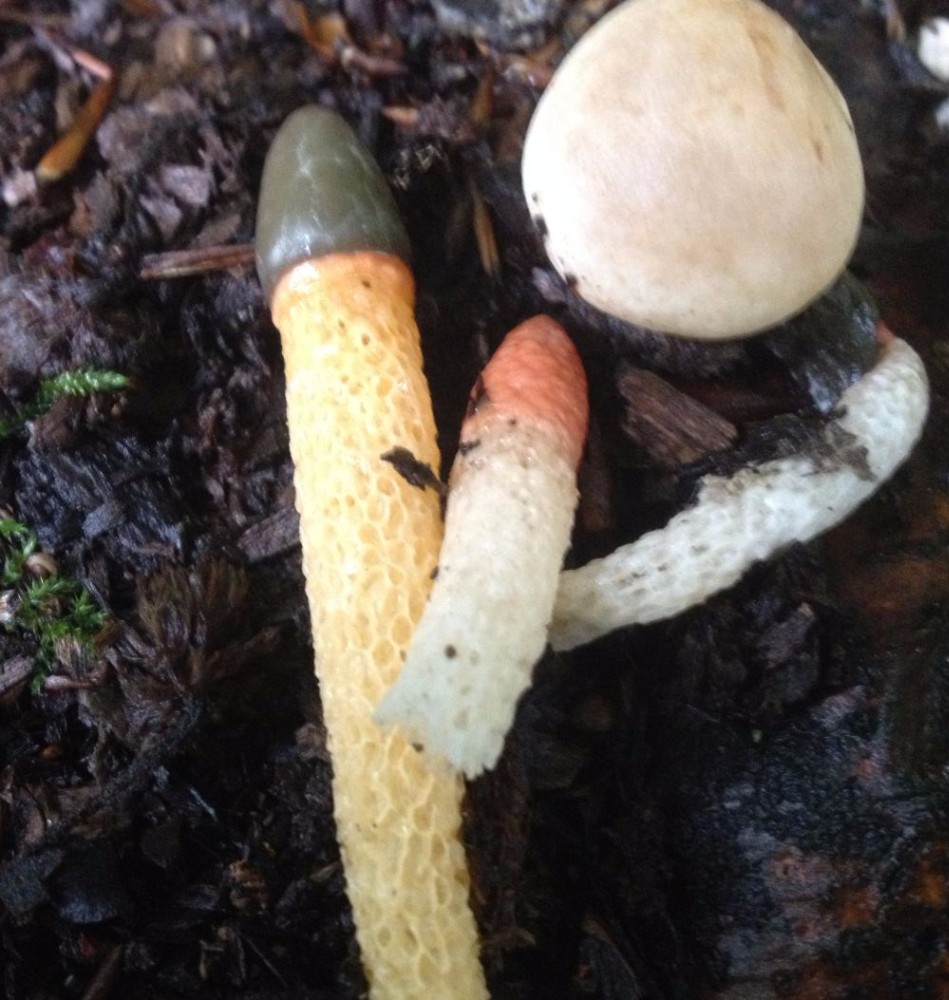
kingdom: Fungi
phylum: Basidiomycota
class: Agaricomycetes
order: Phallales
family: Phallaceae
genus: Mutinus
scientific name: Mutinus caninus
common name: hunde-stinksvamp
